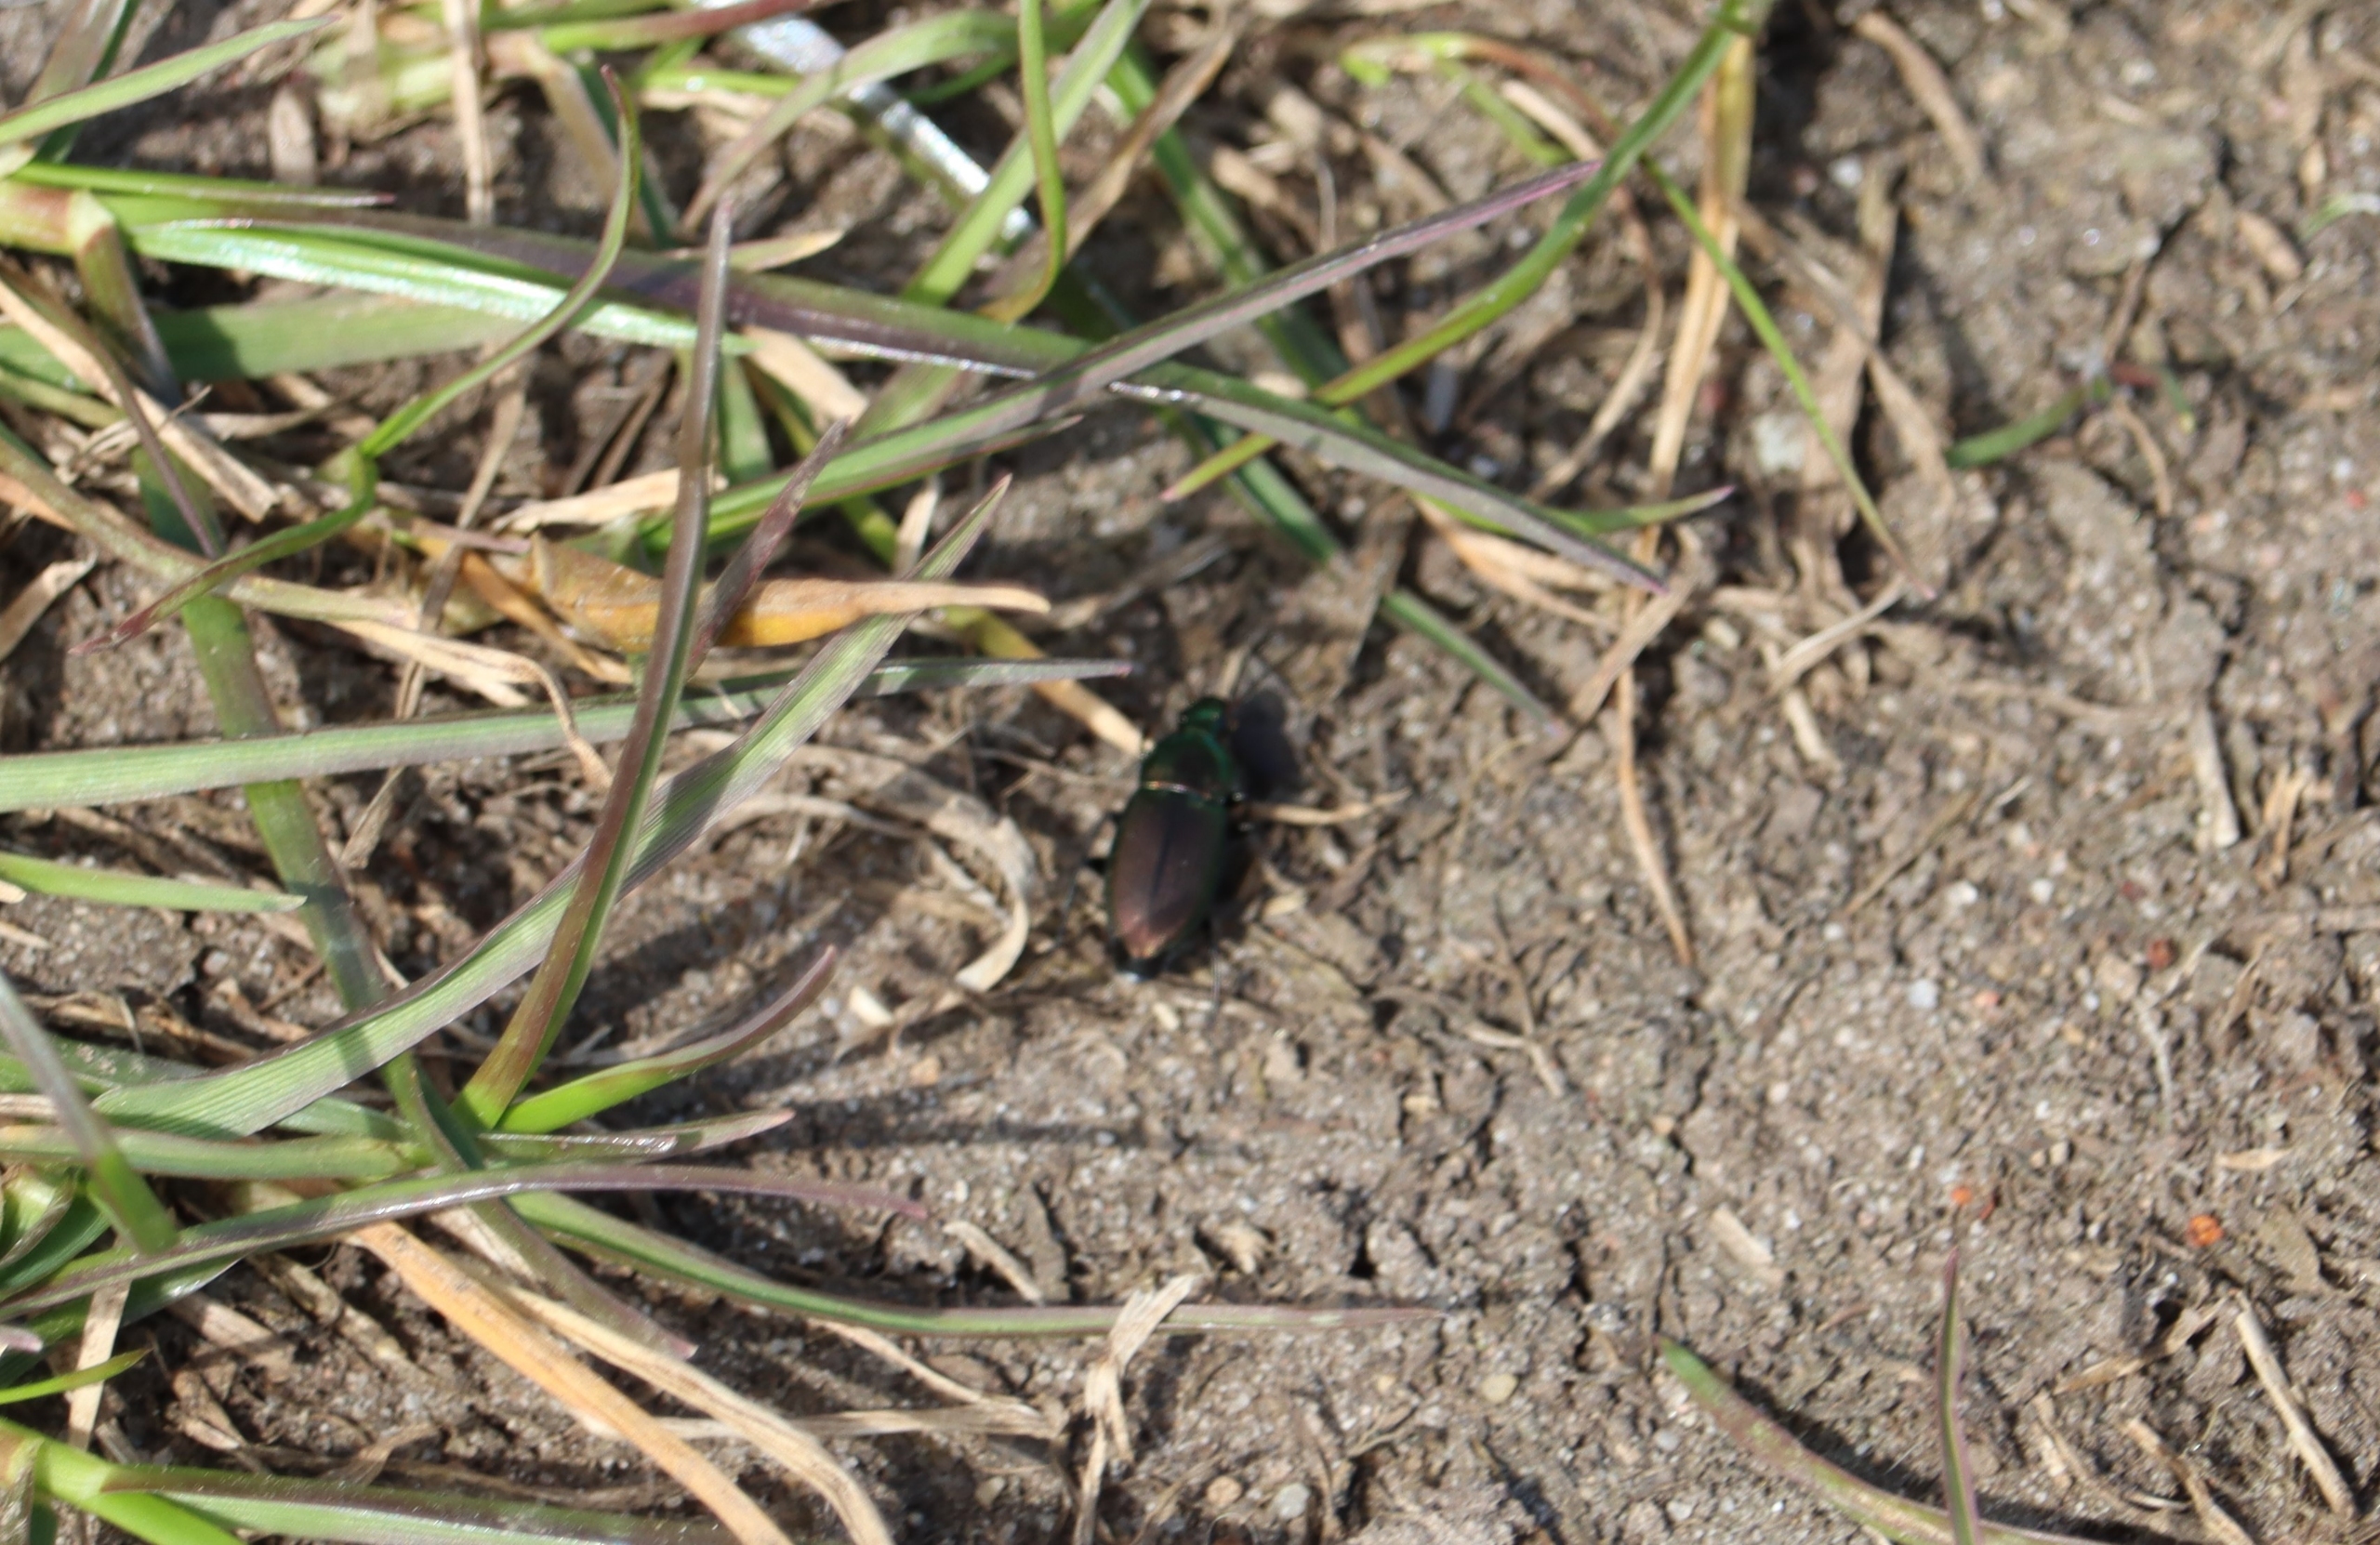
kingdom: Animalia
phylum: Arthropoda
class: Insecta
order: Coleoptera
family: Carabidae
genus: Poecilus
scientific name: Poecilus
